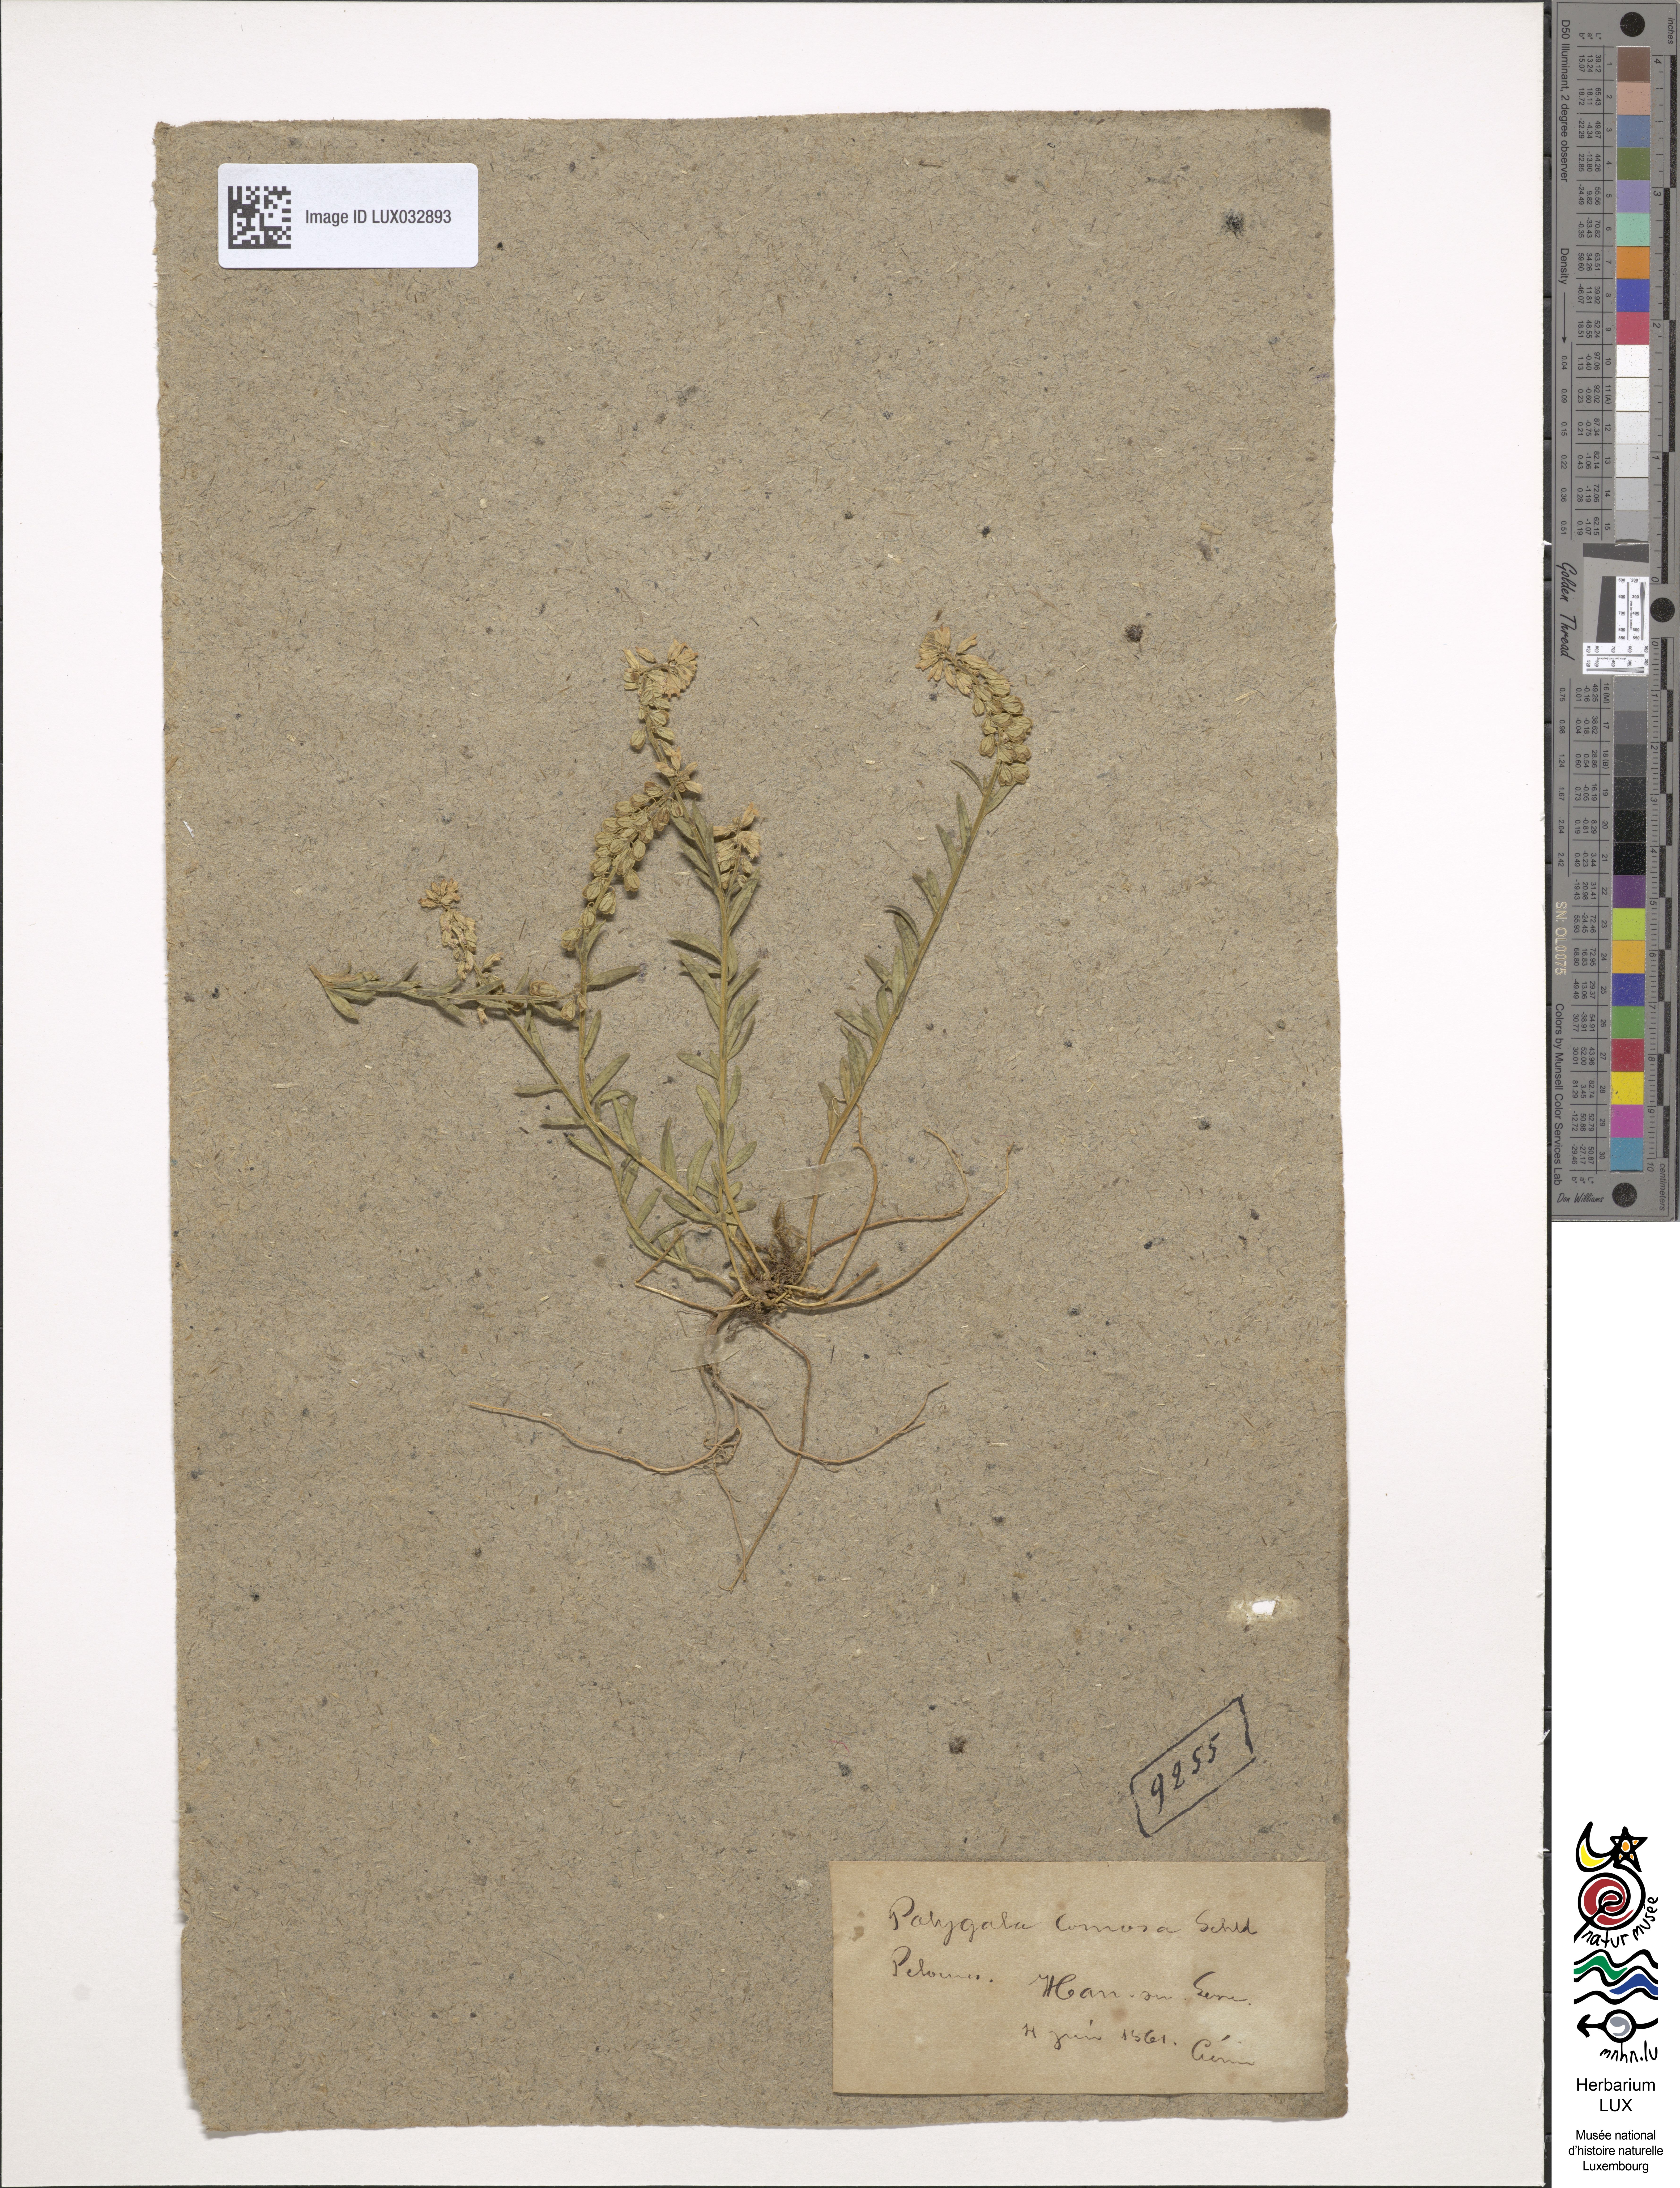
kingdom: Plantae
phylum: Tracheophyta
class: Magnoliopsida
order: Fabales
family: Polygalaceae
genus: Polygala
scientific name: Polygala comosa
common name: Tufted milkwort
